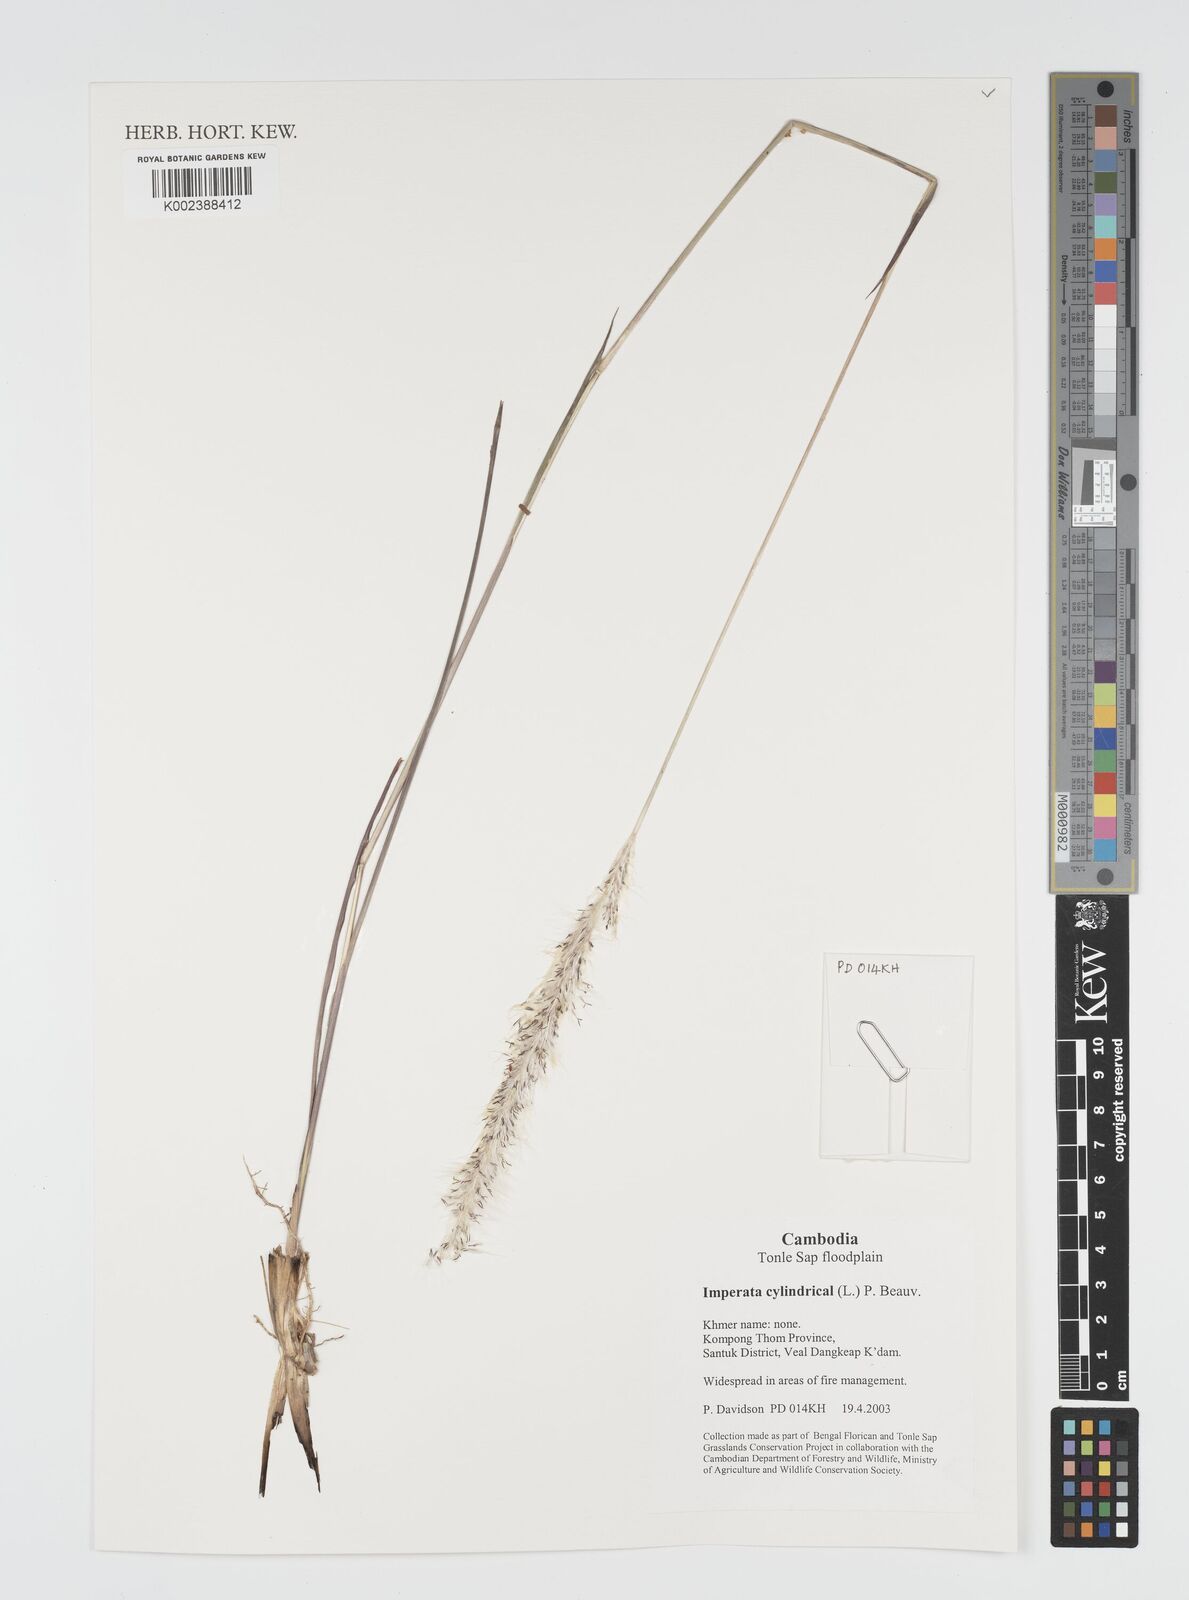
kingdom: Plantae
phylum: Tracheophyta
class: Liliopsida
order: Poales
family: Poaceae
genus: Imperata
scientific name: Imperata cylindrica
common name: Cogongrass
